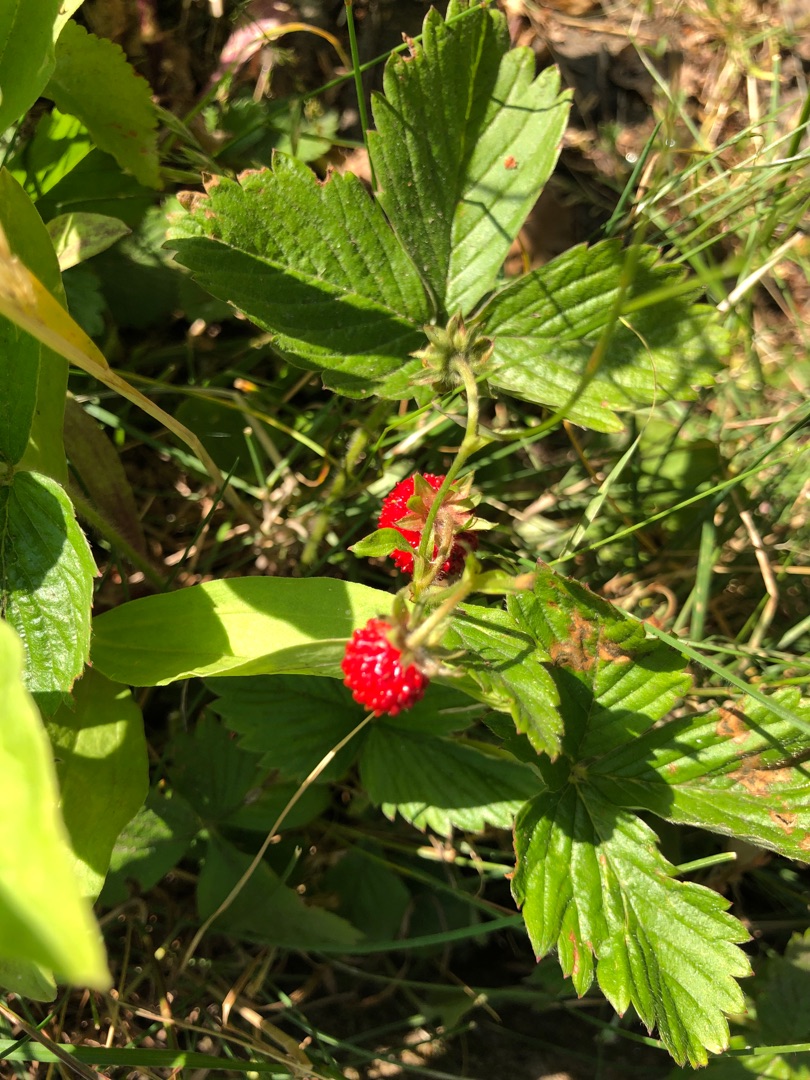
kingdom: Plantae
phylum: Tracheophyta
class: Magnoliopsida
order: Rosales
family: Rosaceae
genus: Fragaria
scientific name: Fragaria vesca
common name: Skov-jordbær
